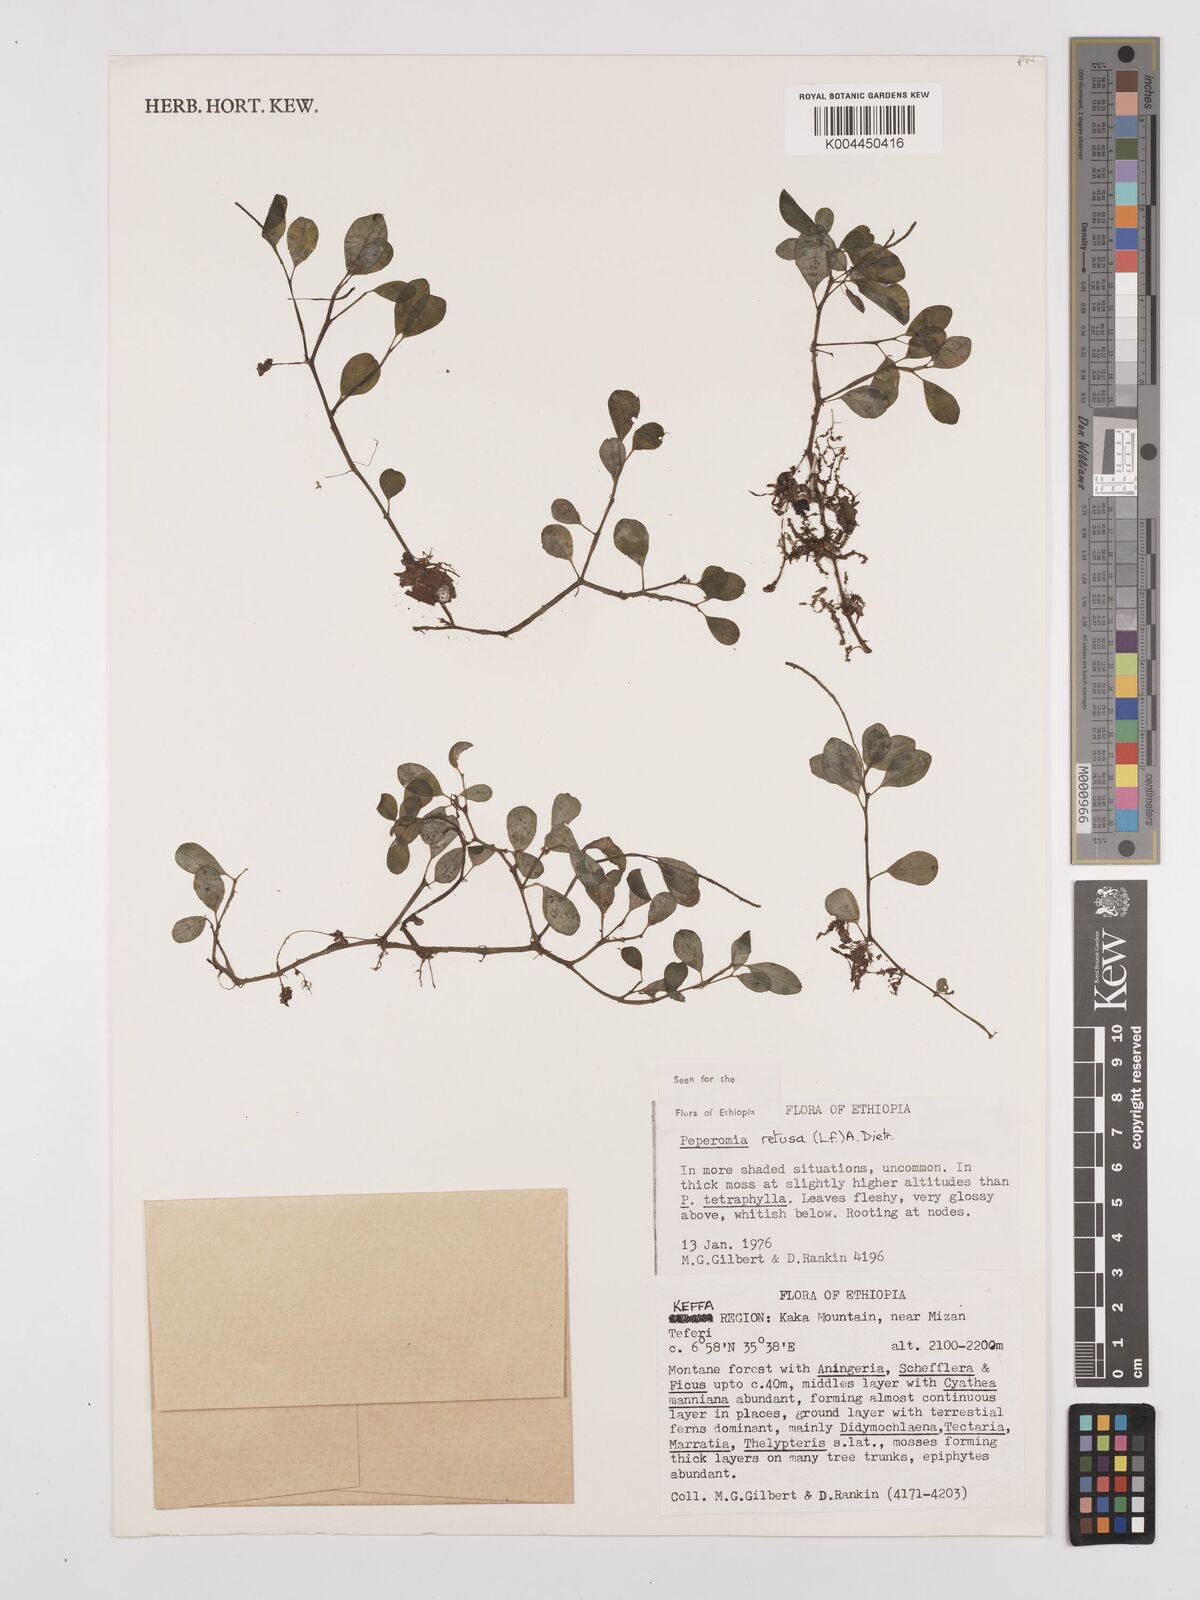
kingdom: Plantae
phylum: Tracheophyta
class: Magnoliopsida
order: Piperales
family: Piperaceae
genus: Peperomia
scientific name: Peperomia retusa
